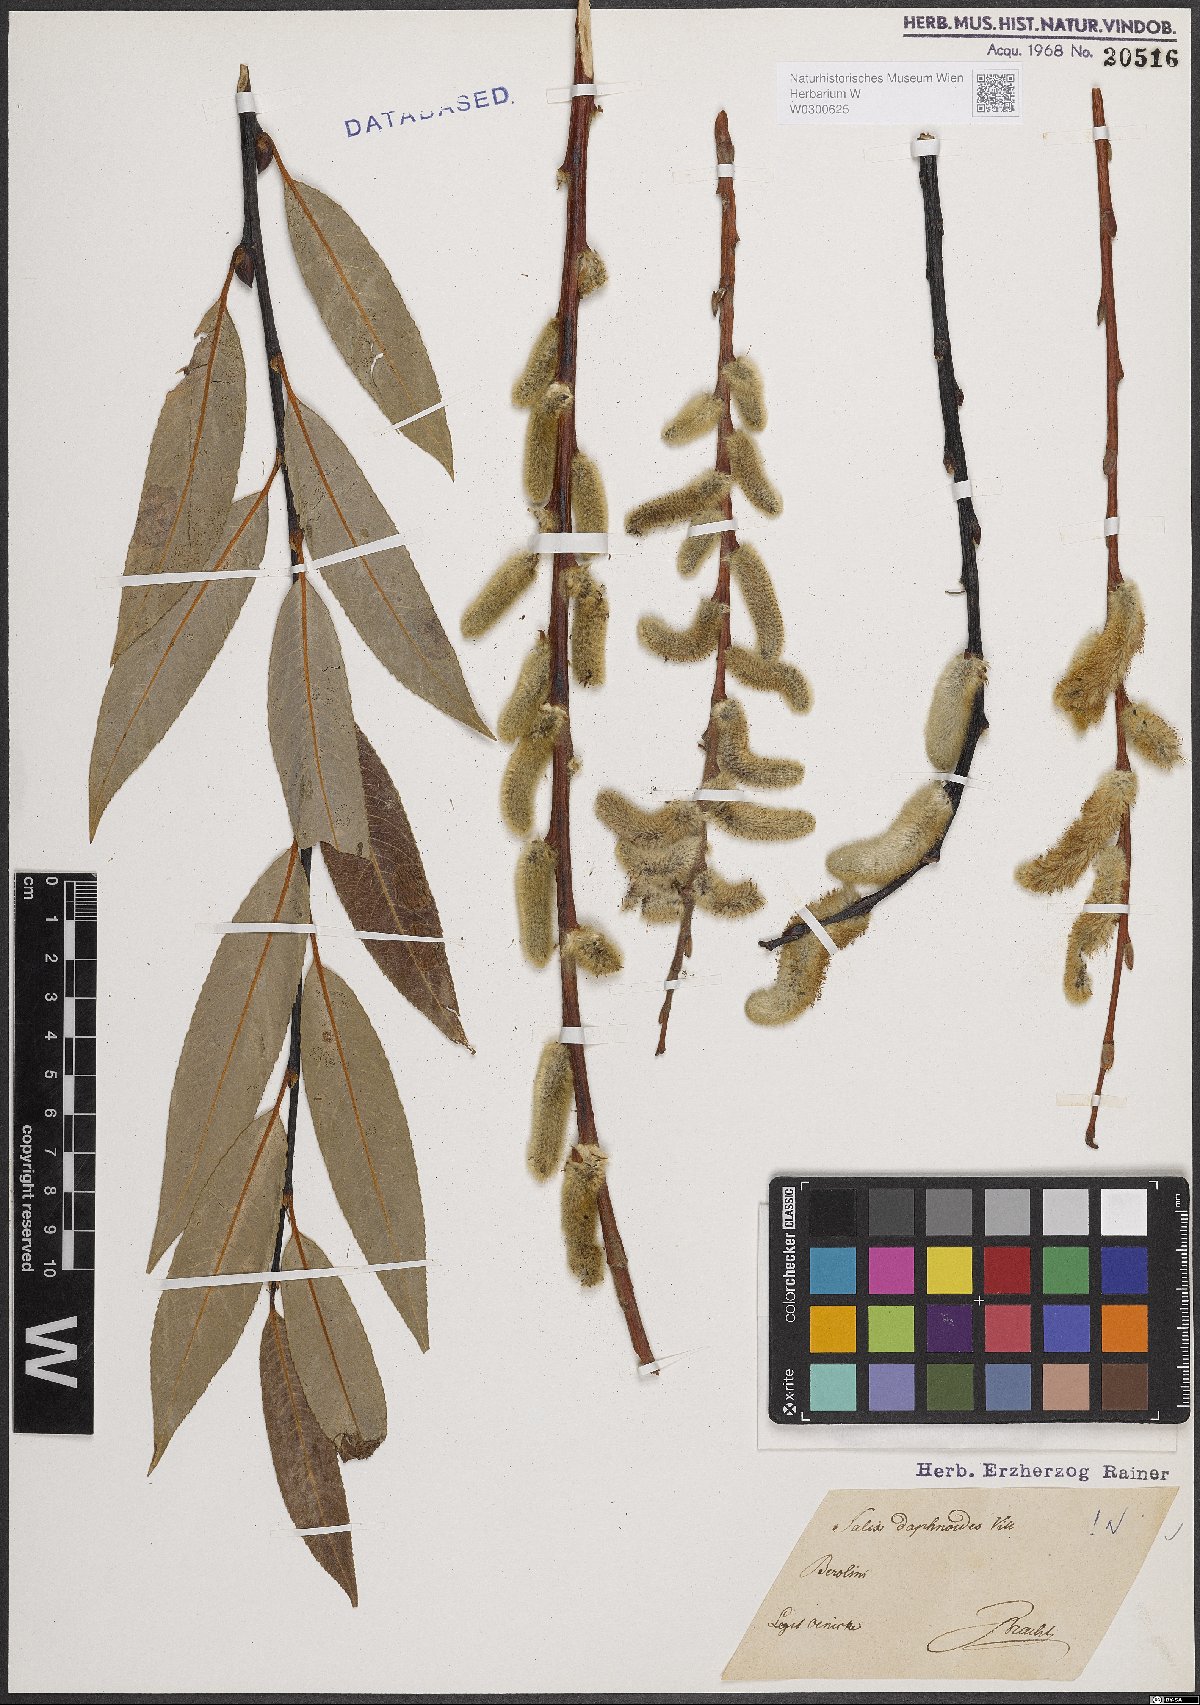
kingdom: Plantae
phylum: Tracheophyta
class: Magnoliopsida
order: Malpighiales
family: Salicaceae
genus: Salix
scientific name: Salix daphnoides
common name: European violet-willow
